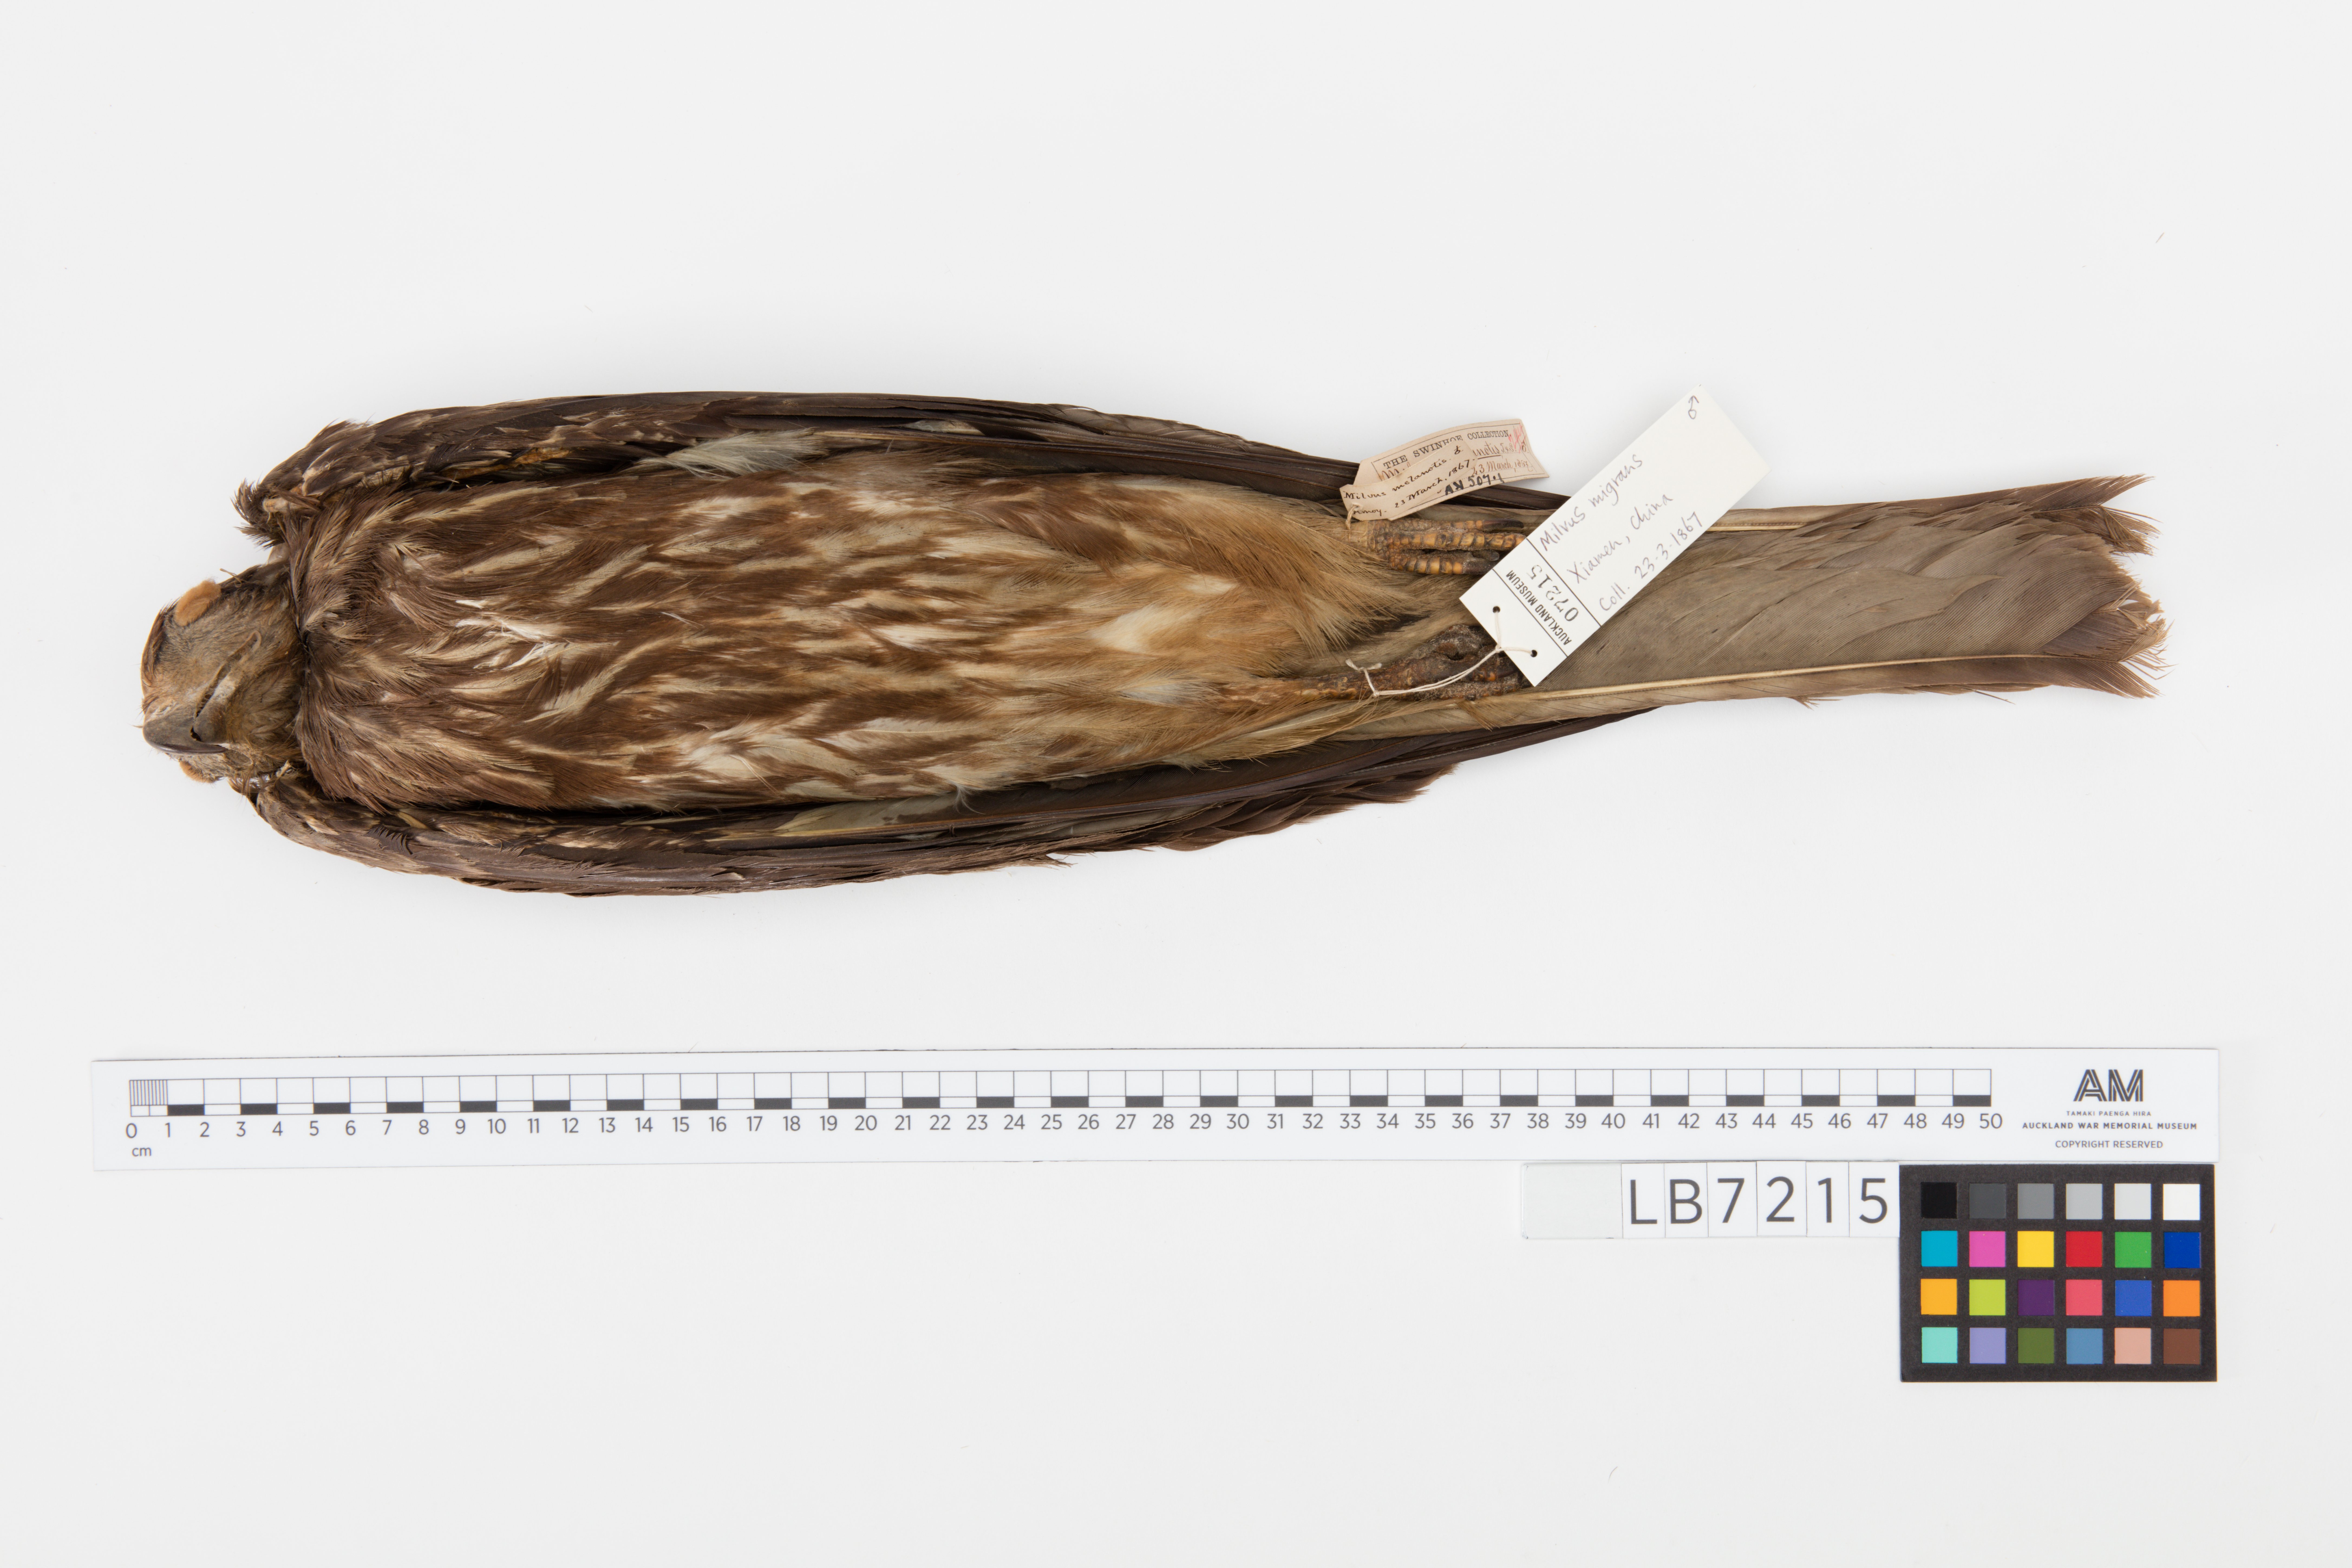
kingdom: Animalia
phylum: Chordata
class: Aves
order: Accipitriformes
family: Accipitridae
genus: Milvus
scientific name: Milvus migrans
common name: Black kite
